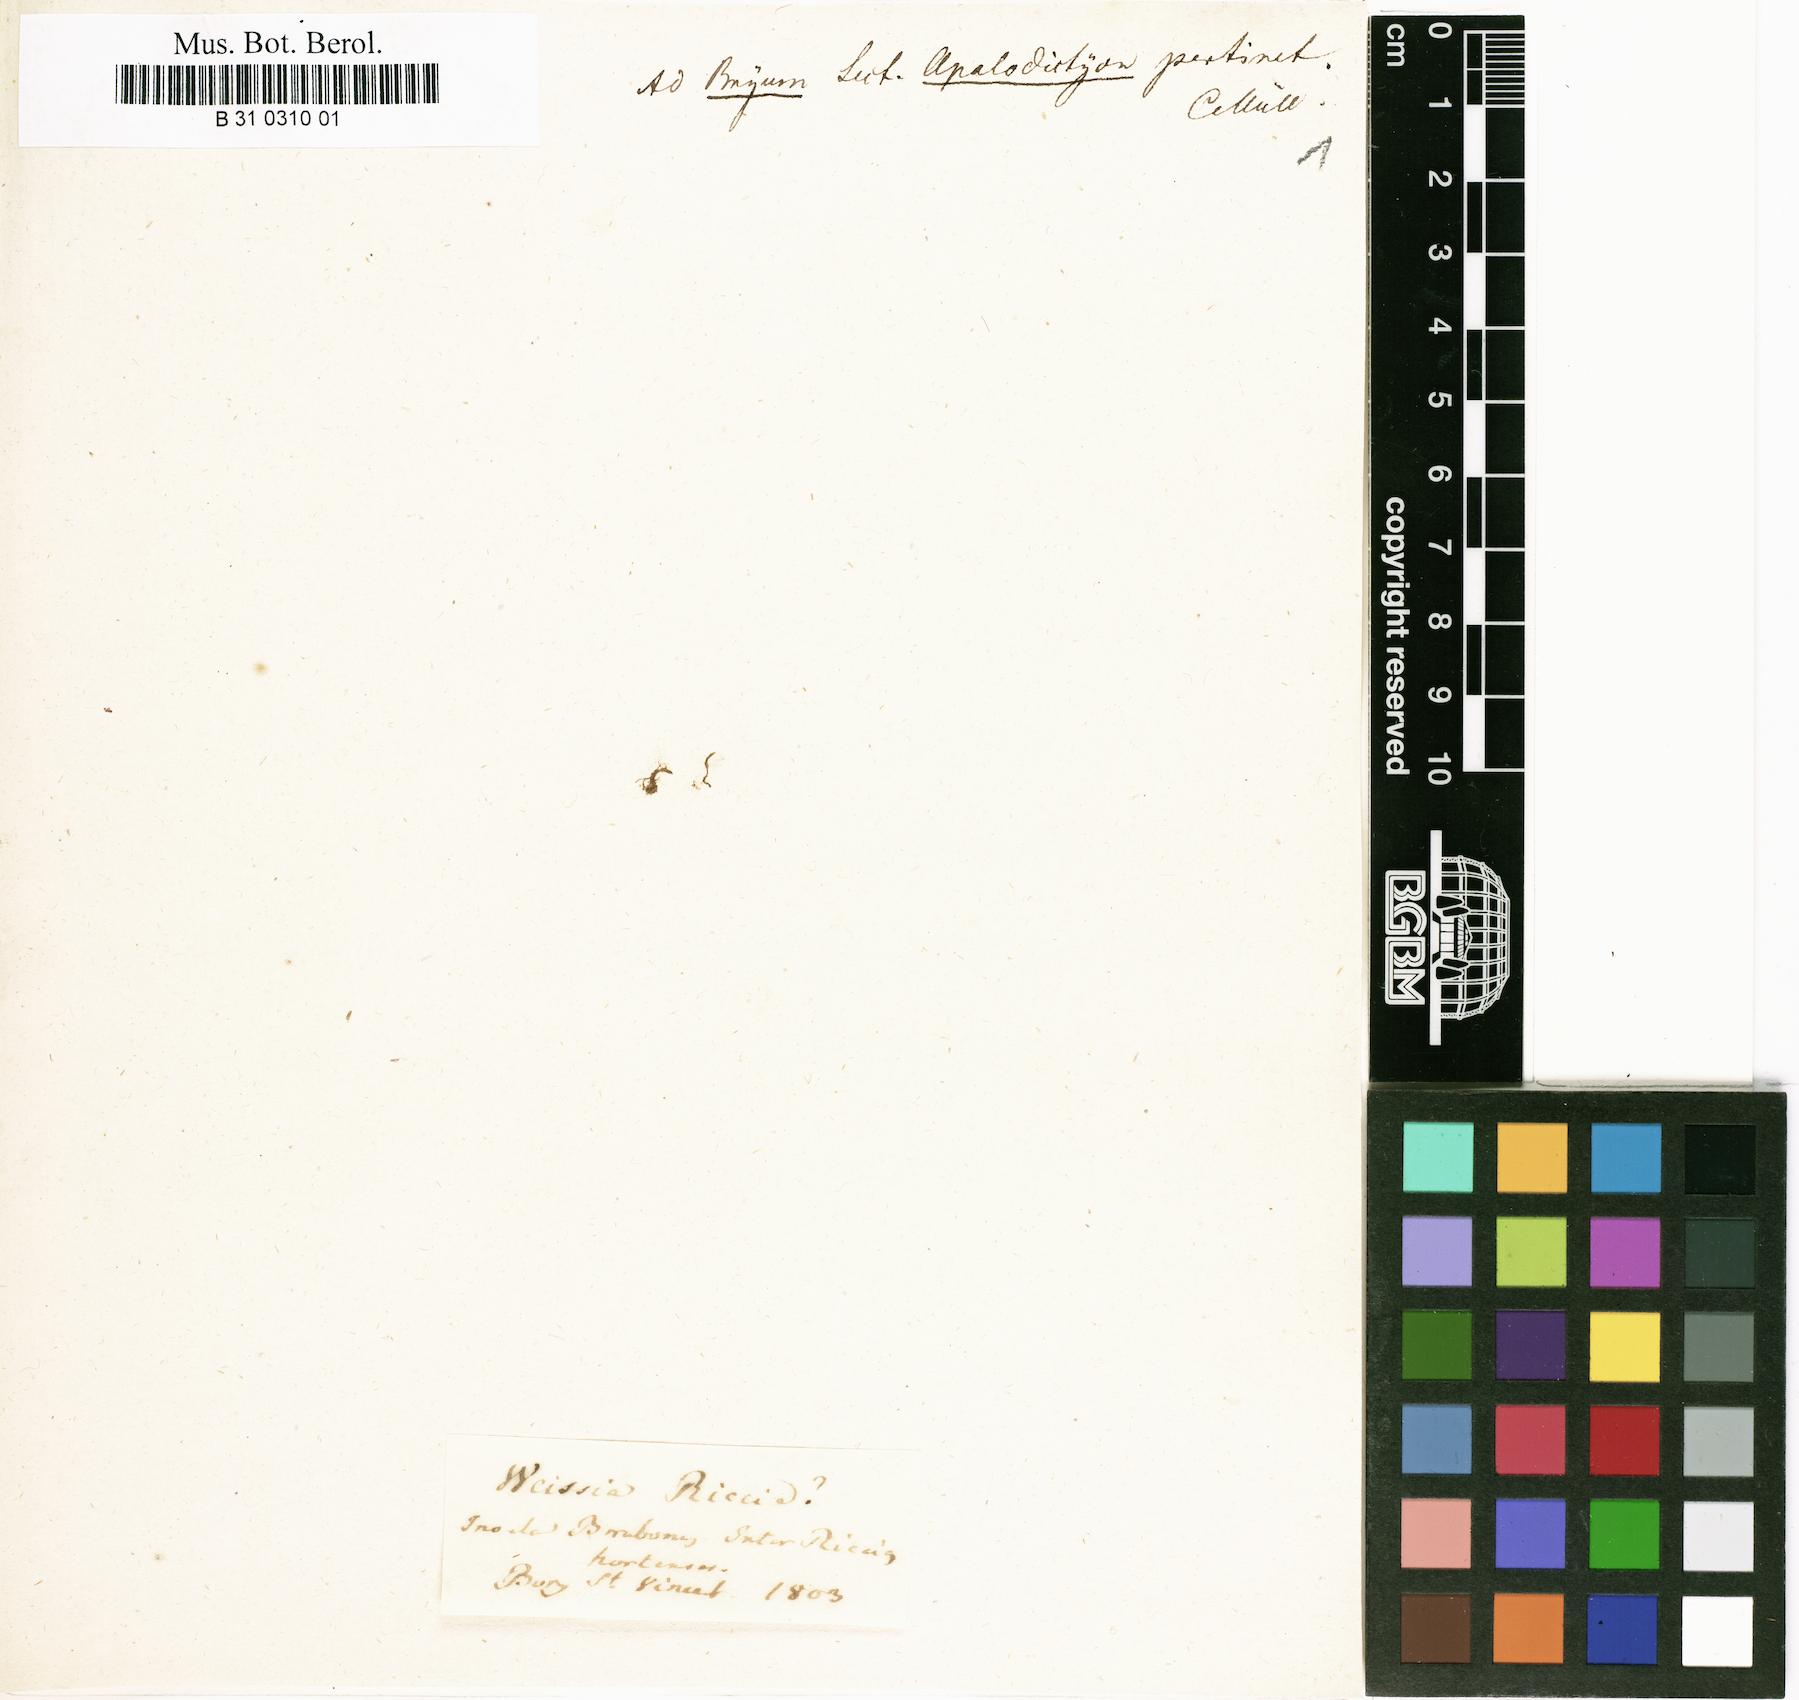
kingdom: Plantae
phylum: Bryophyta
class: Bryopsida
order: Pottiales
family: Pottiaceae
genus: Weissia
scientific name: Weissia ricciae
